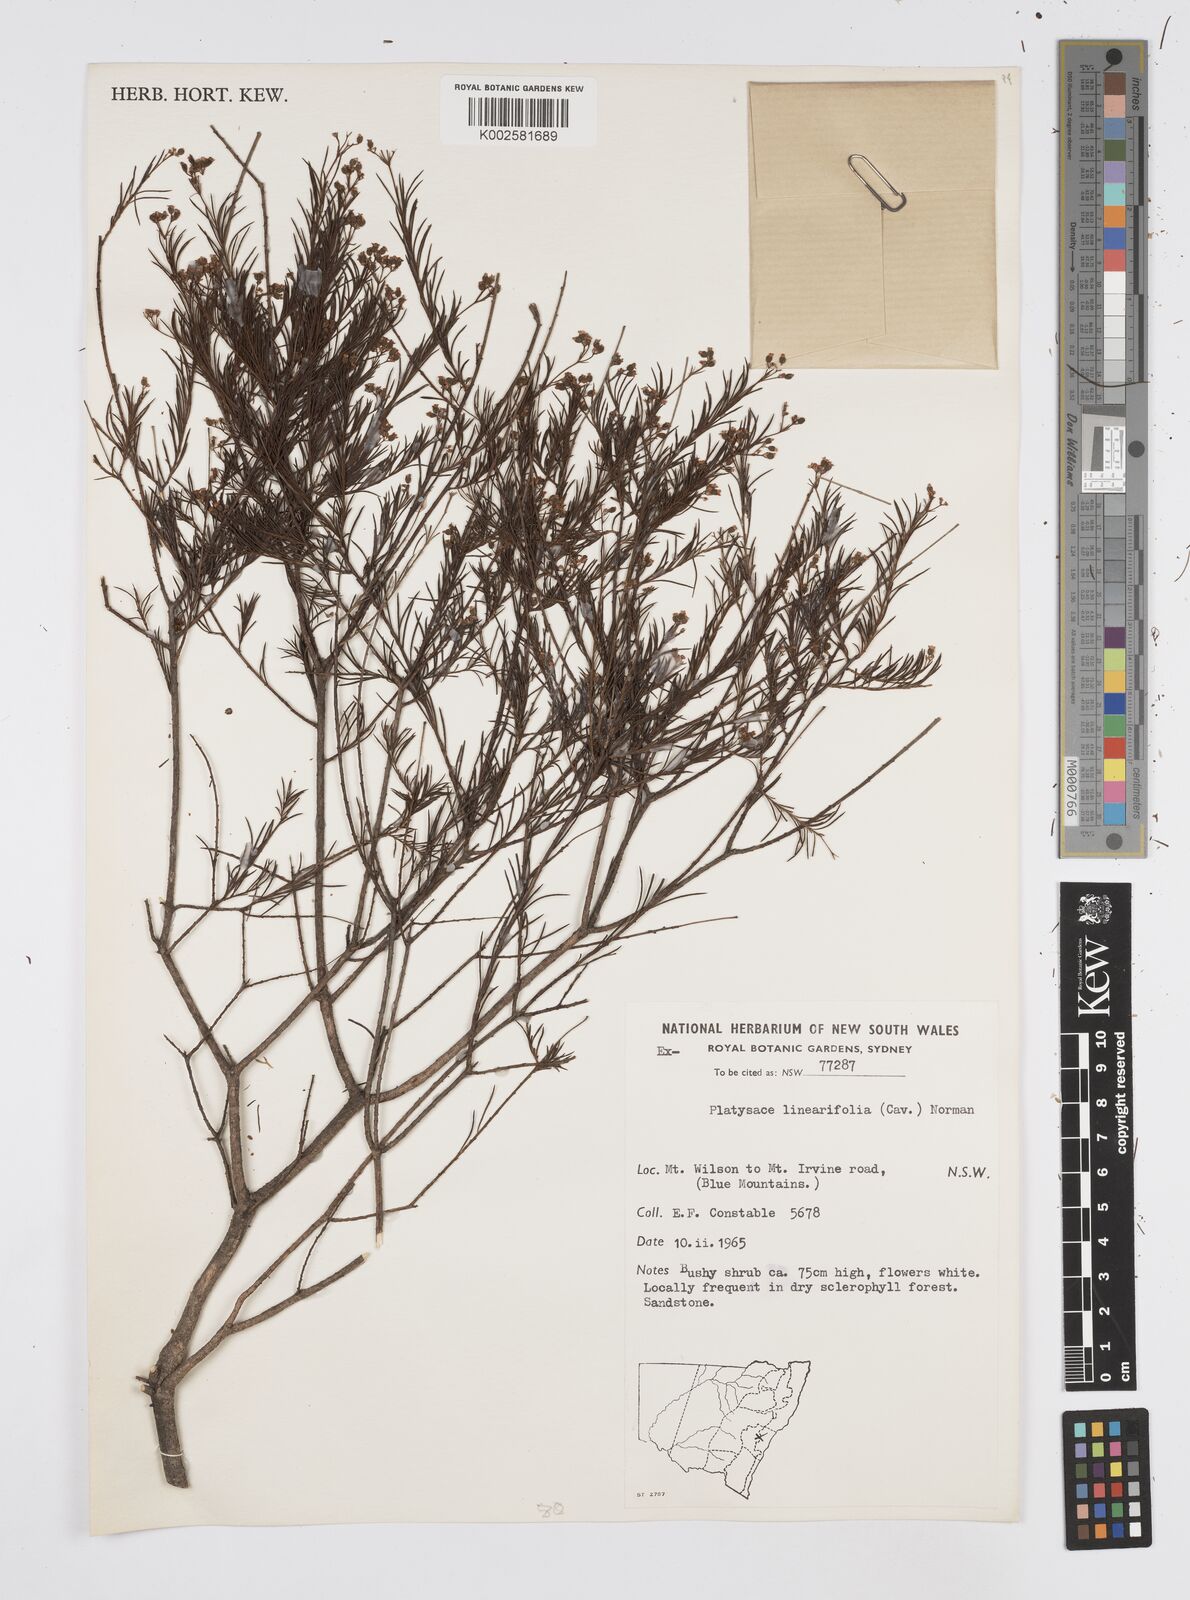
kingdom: Plantae
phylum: Tracheophyta
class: Magnoliopsida
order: Apiales
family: Apiaceae
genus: Platysace
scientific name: Platysace linearifolia
